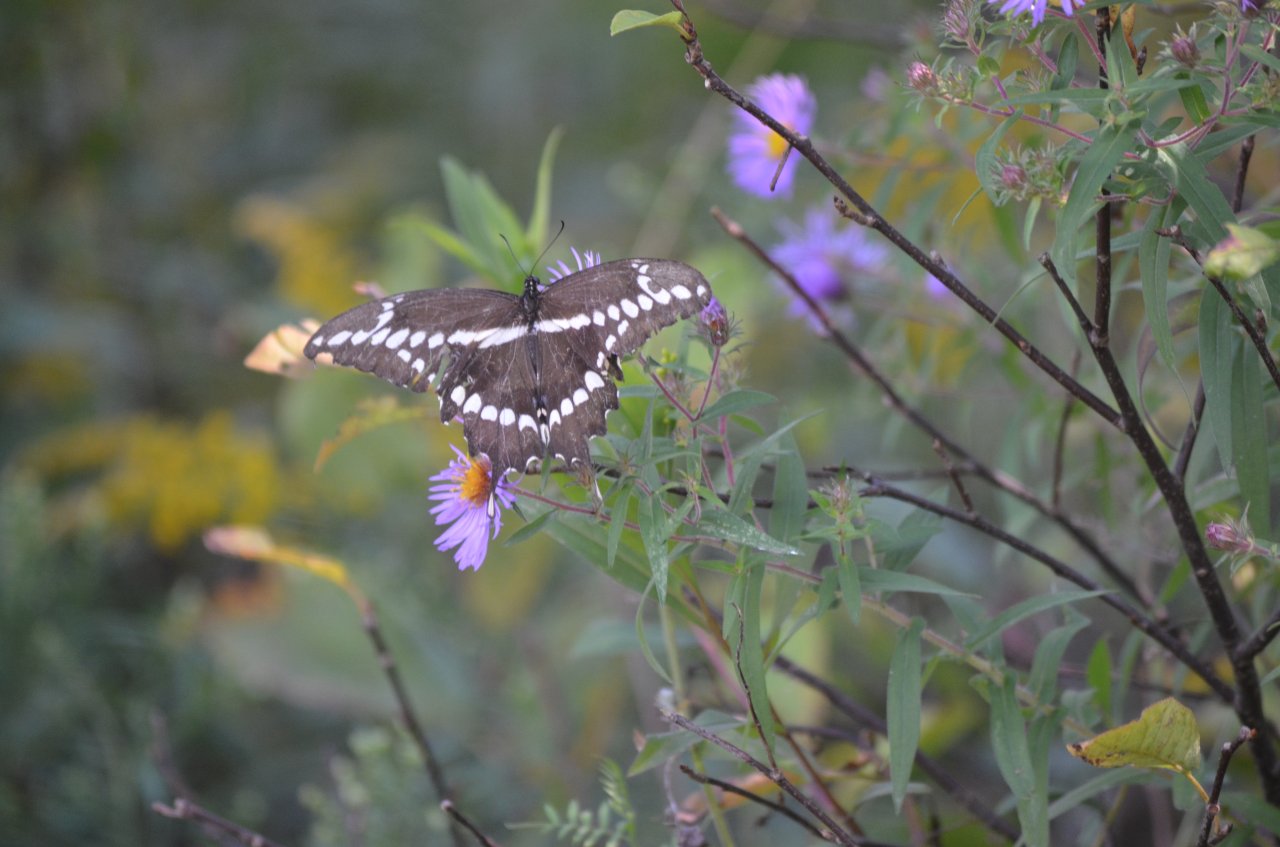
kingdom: Animalia
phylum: Arthropoda
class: Insecta
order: Lepidoptera
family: Papilionidae
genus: Papilio
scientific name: Papilio cresphontes
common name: Eastern Giant Swallowtail
